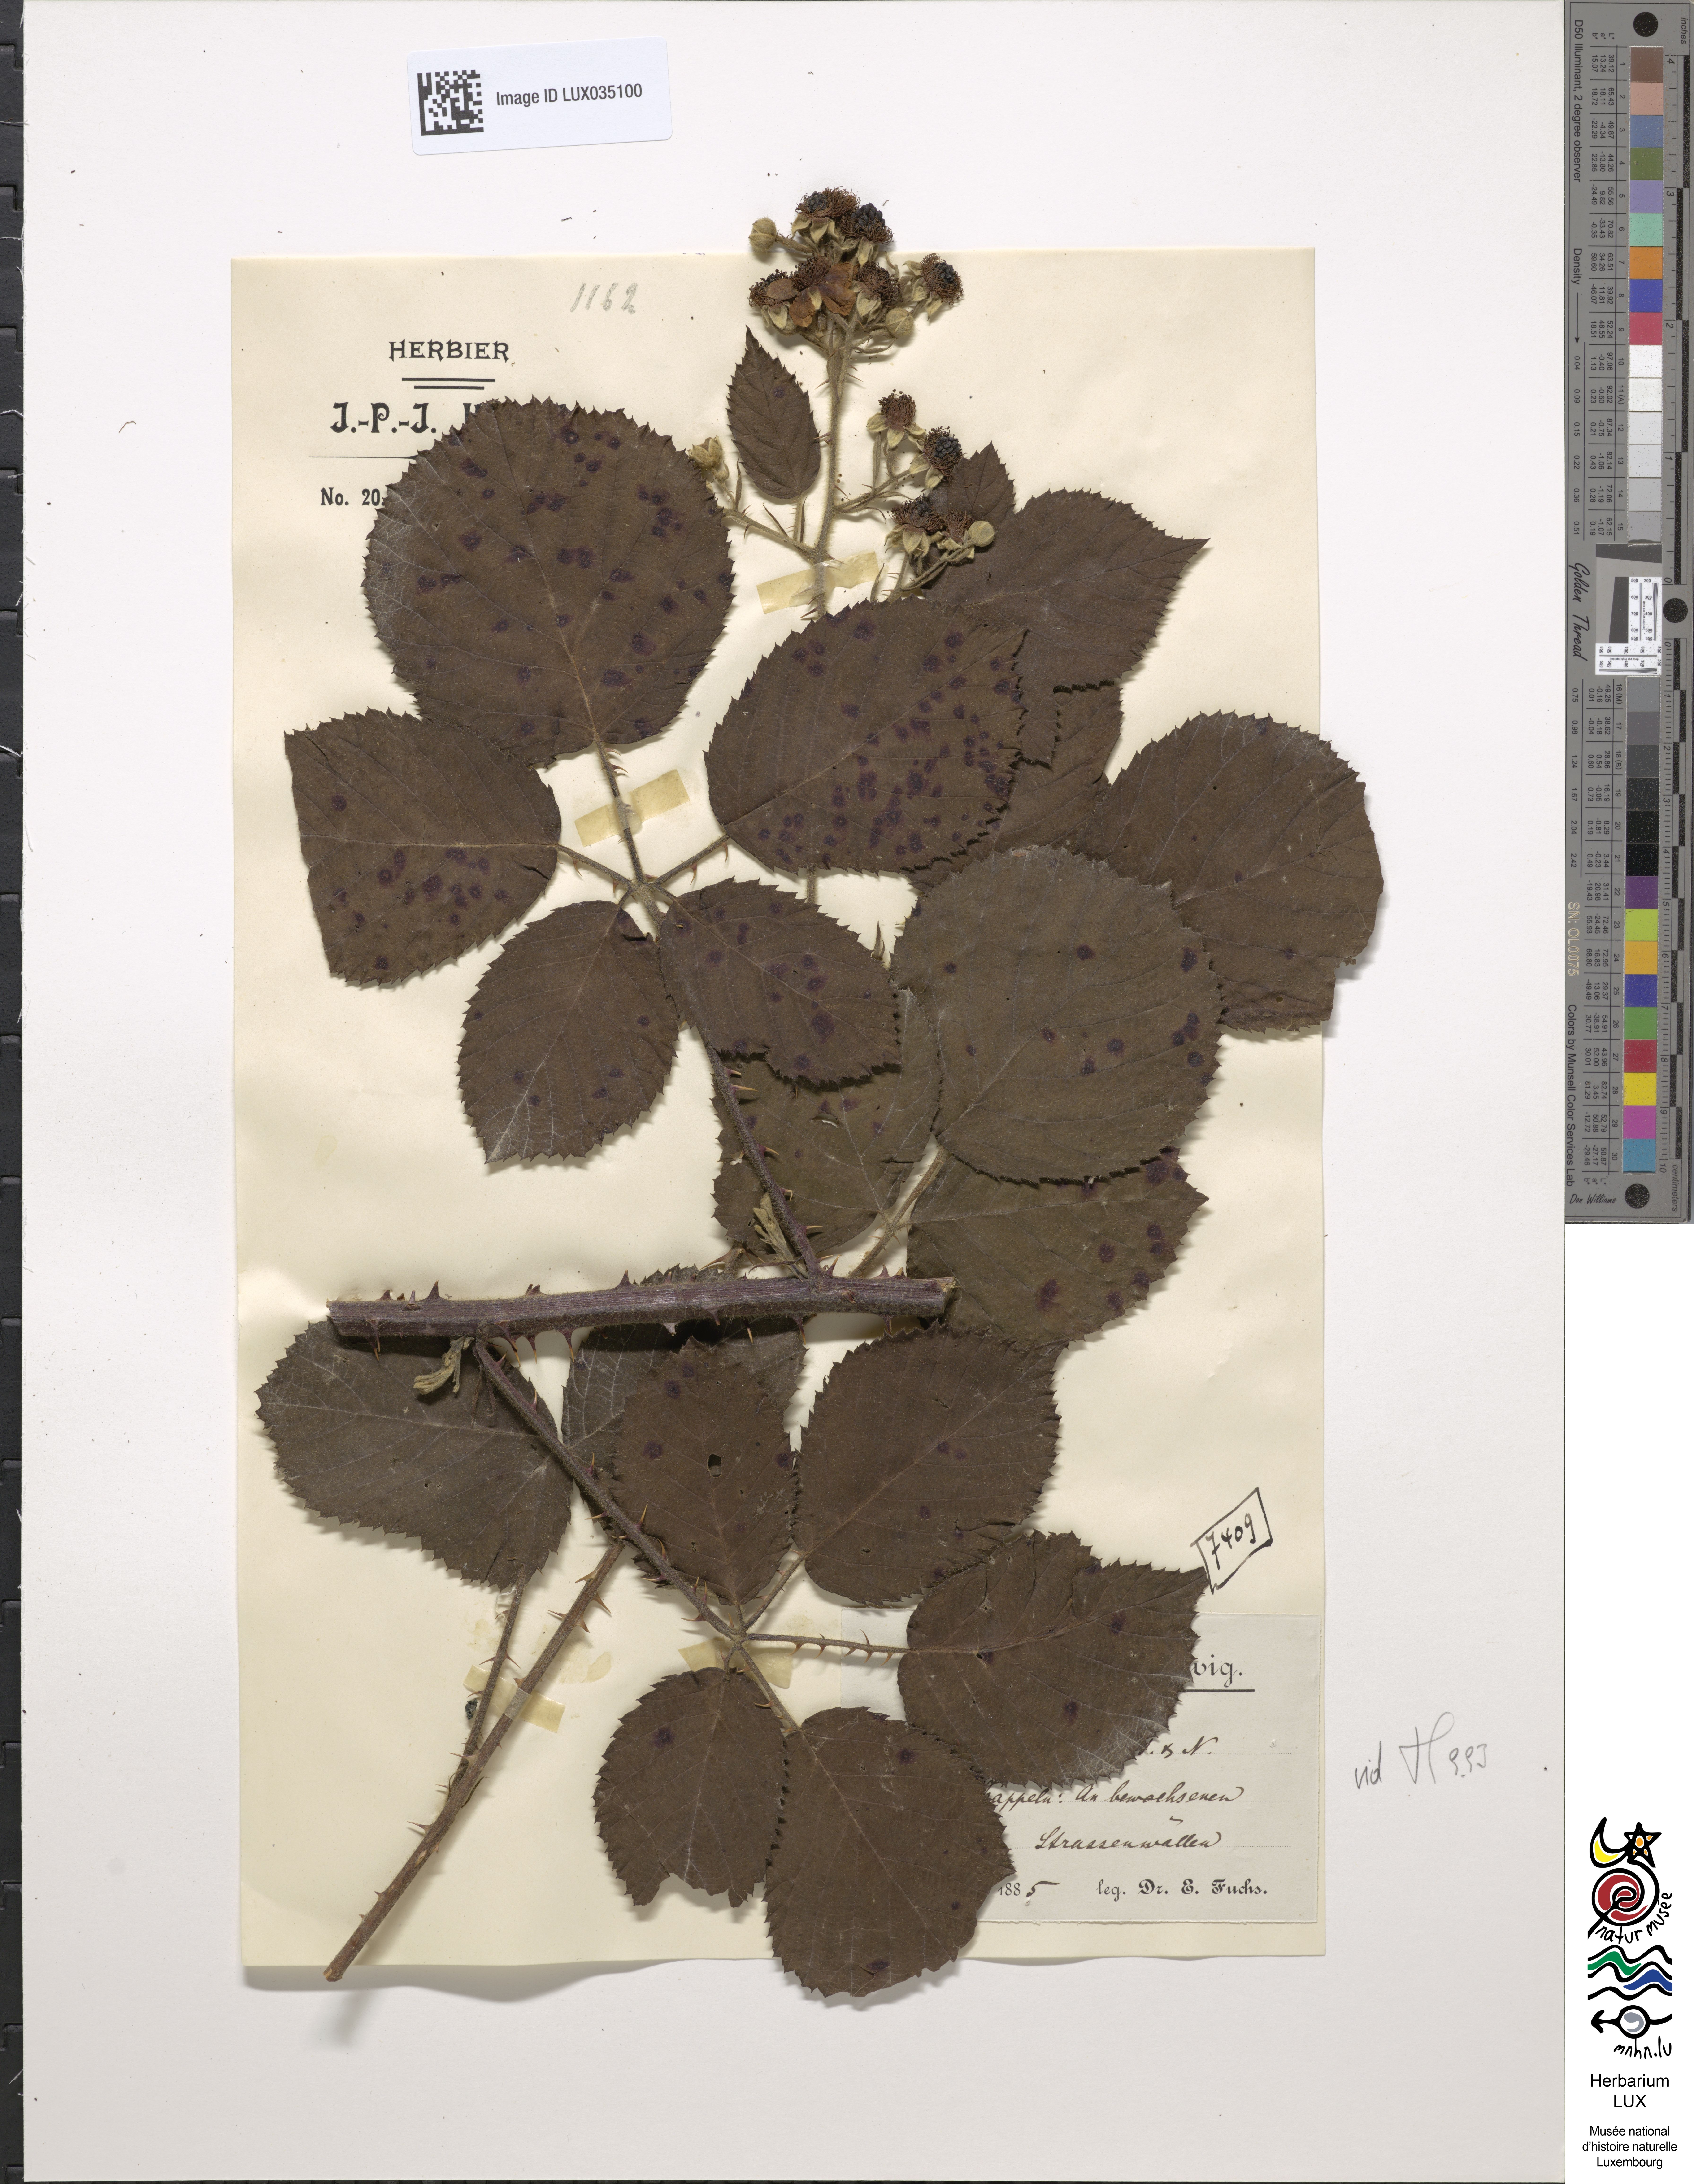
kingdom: Plantae
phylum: Tracheophyta
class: Magnoliopsida
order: Rosales
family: Rosaceae
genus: Rubus
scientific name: Rubus vestitus
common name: European blackberry
